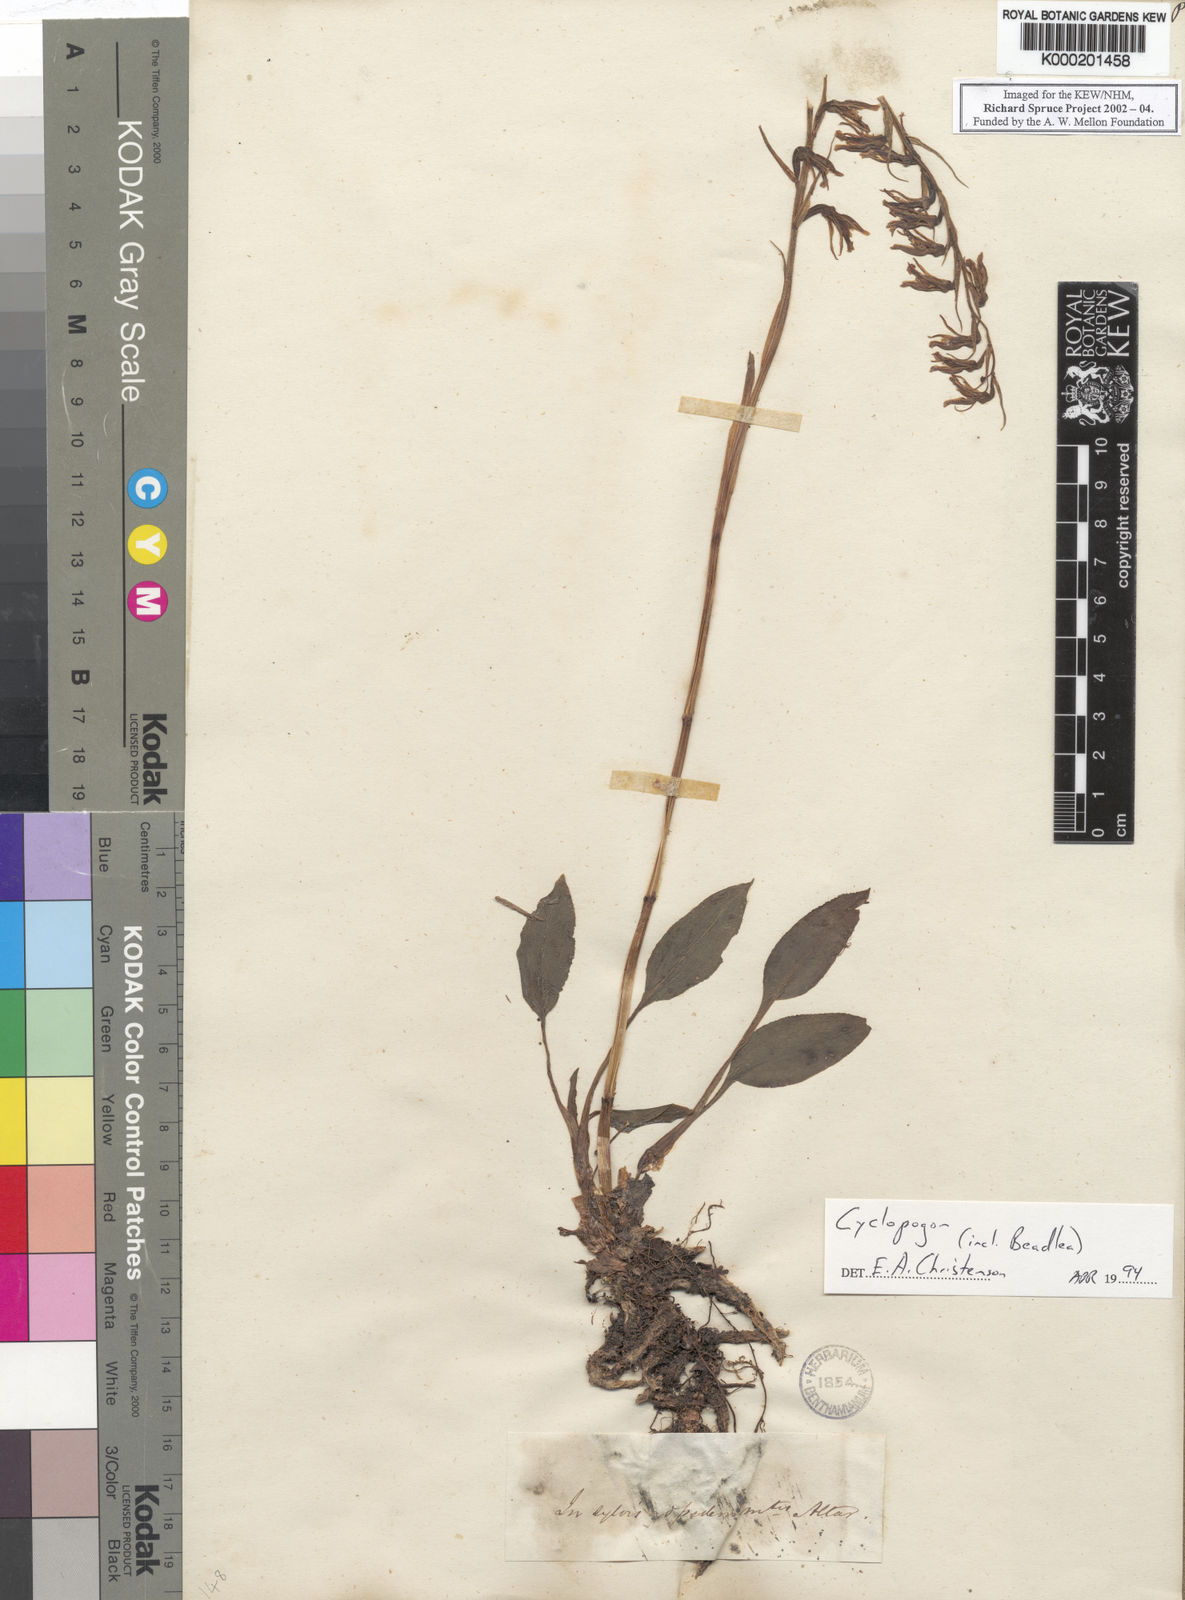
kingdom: Plantae
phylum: Tracheophyta
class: Liliopsida
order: Asparagales
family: Orchidaceae
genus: Cyclopogon
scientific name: Cyclopogon millei
